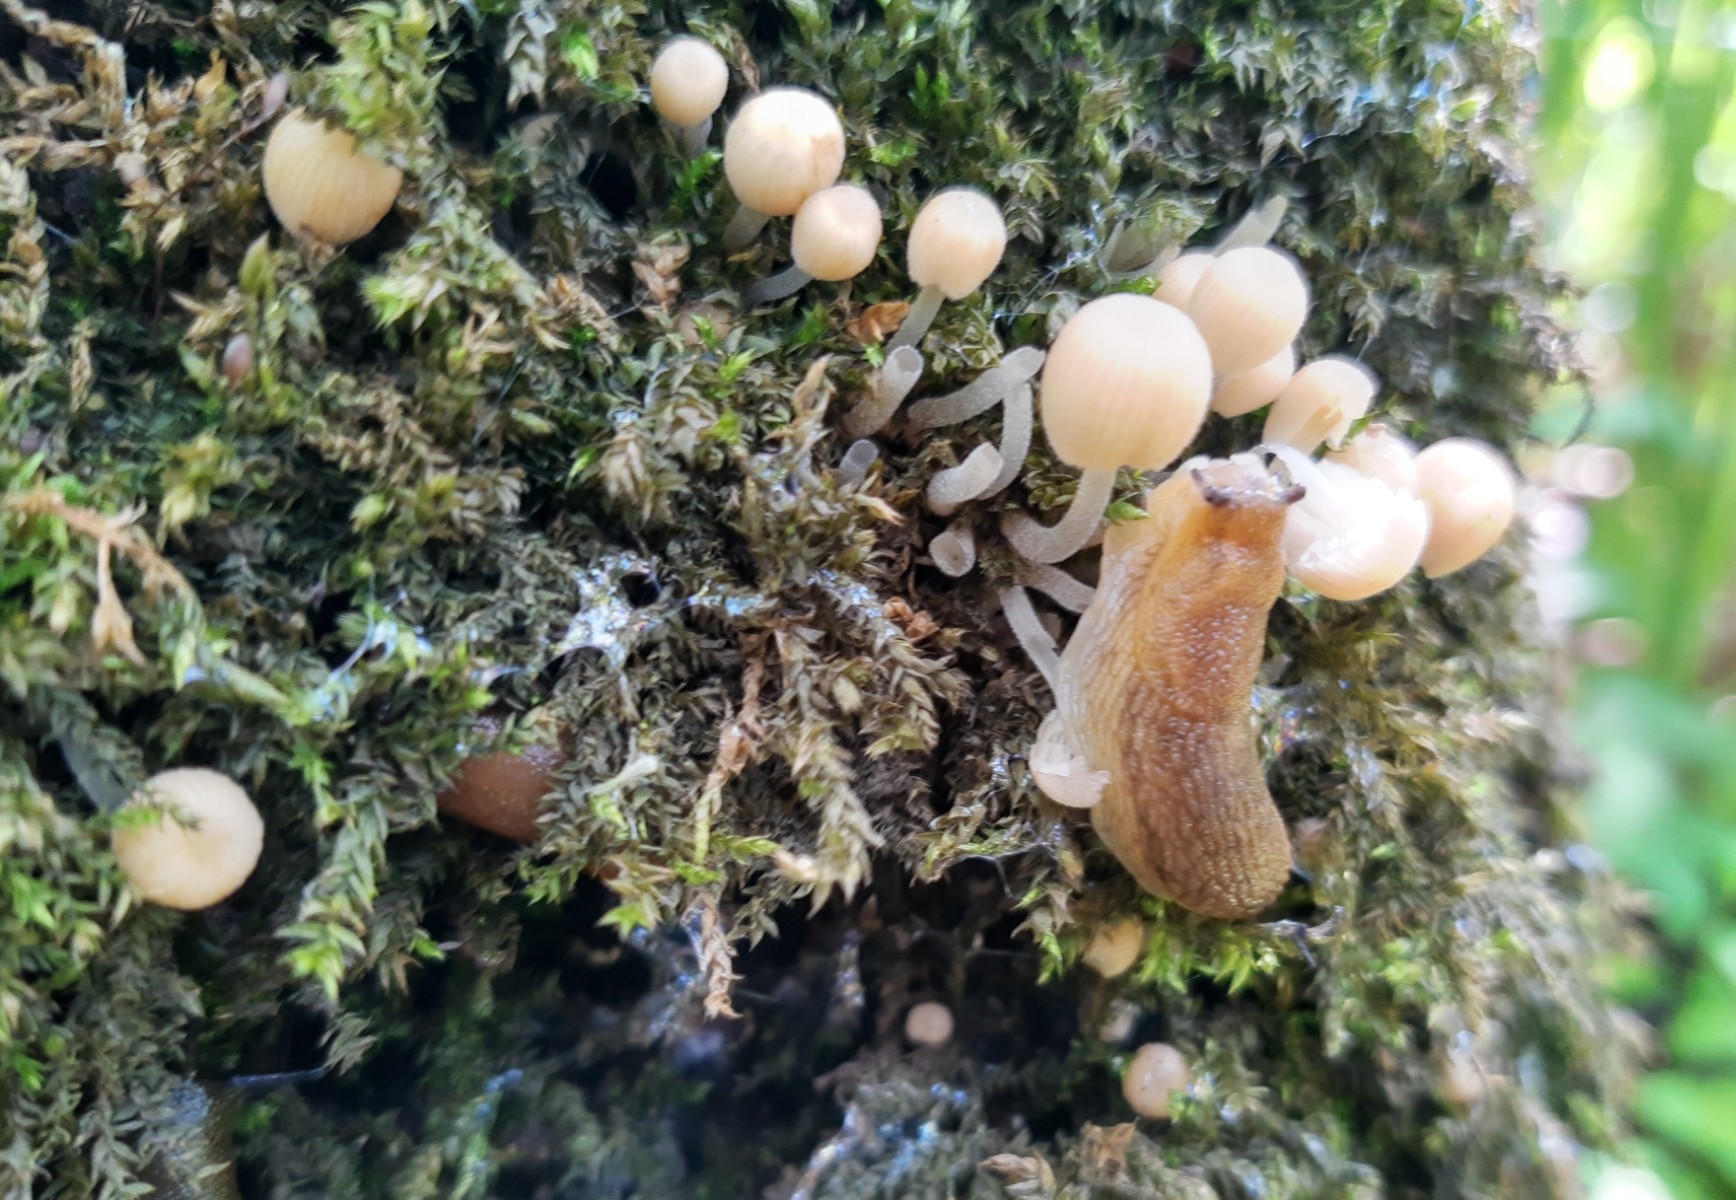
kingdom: Fungi
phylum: Basidiomycota
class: Agaricomycetes
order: Agaricales
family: Psathyrellaceae
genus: Coprinellus
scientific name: Coprinellus disseminatus
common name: bredsået blækhat
